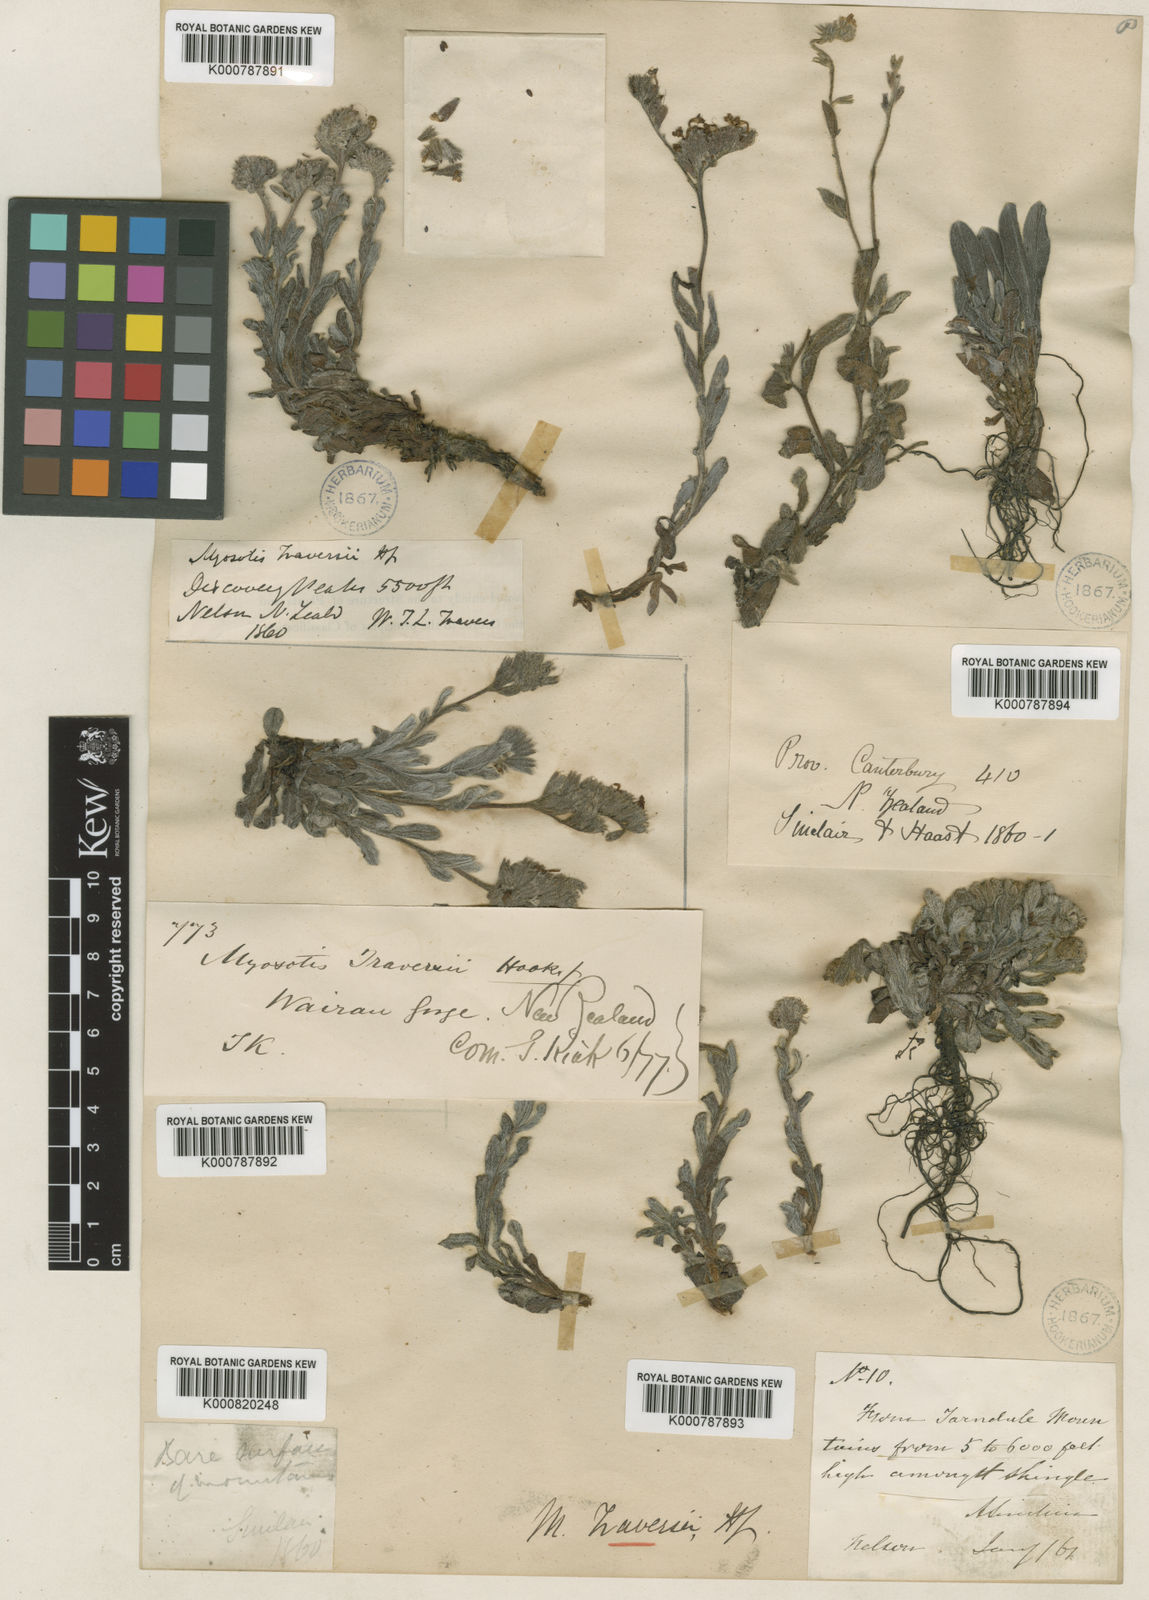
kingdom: Plantae
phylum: Tracheophyta
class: Magnoliopsida
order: Boraginales
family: Boraginaceae
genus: Myosotis
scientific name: Myosotis traversii
